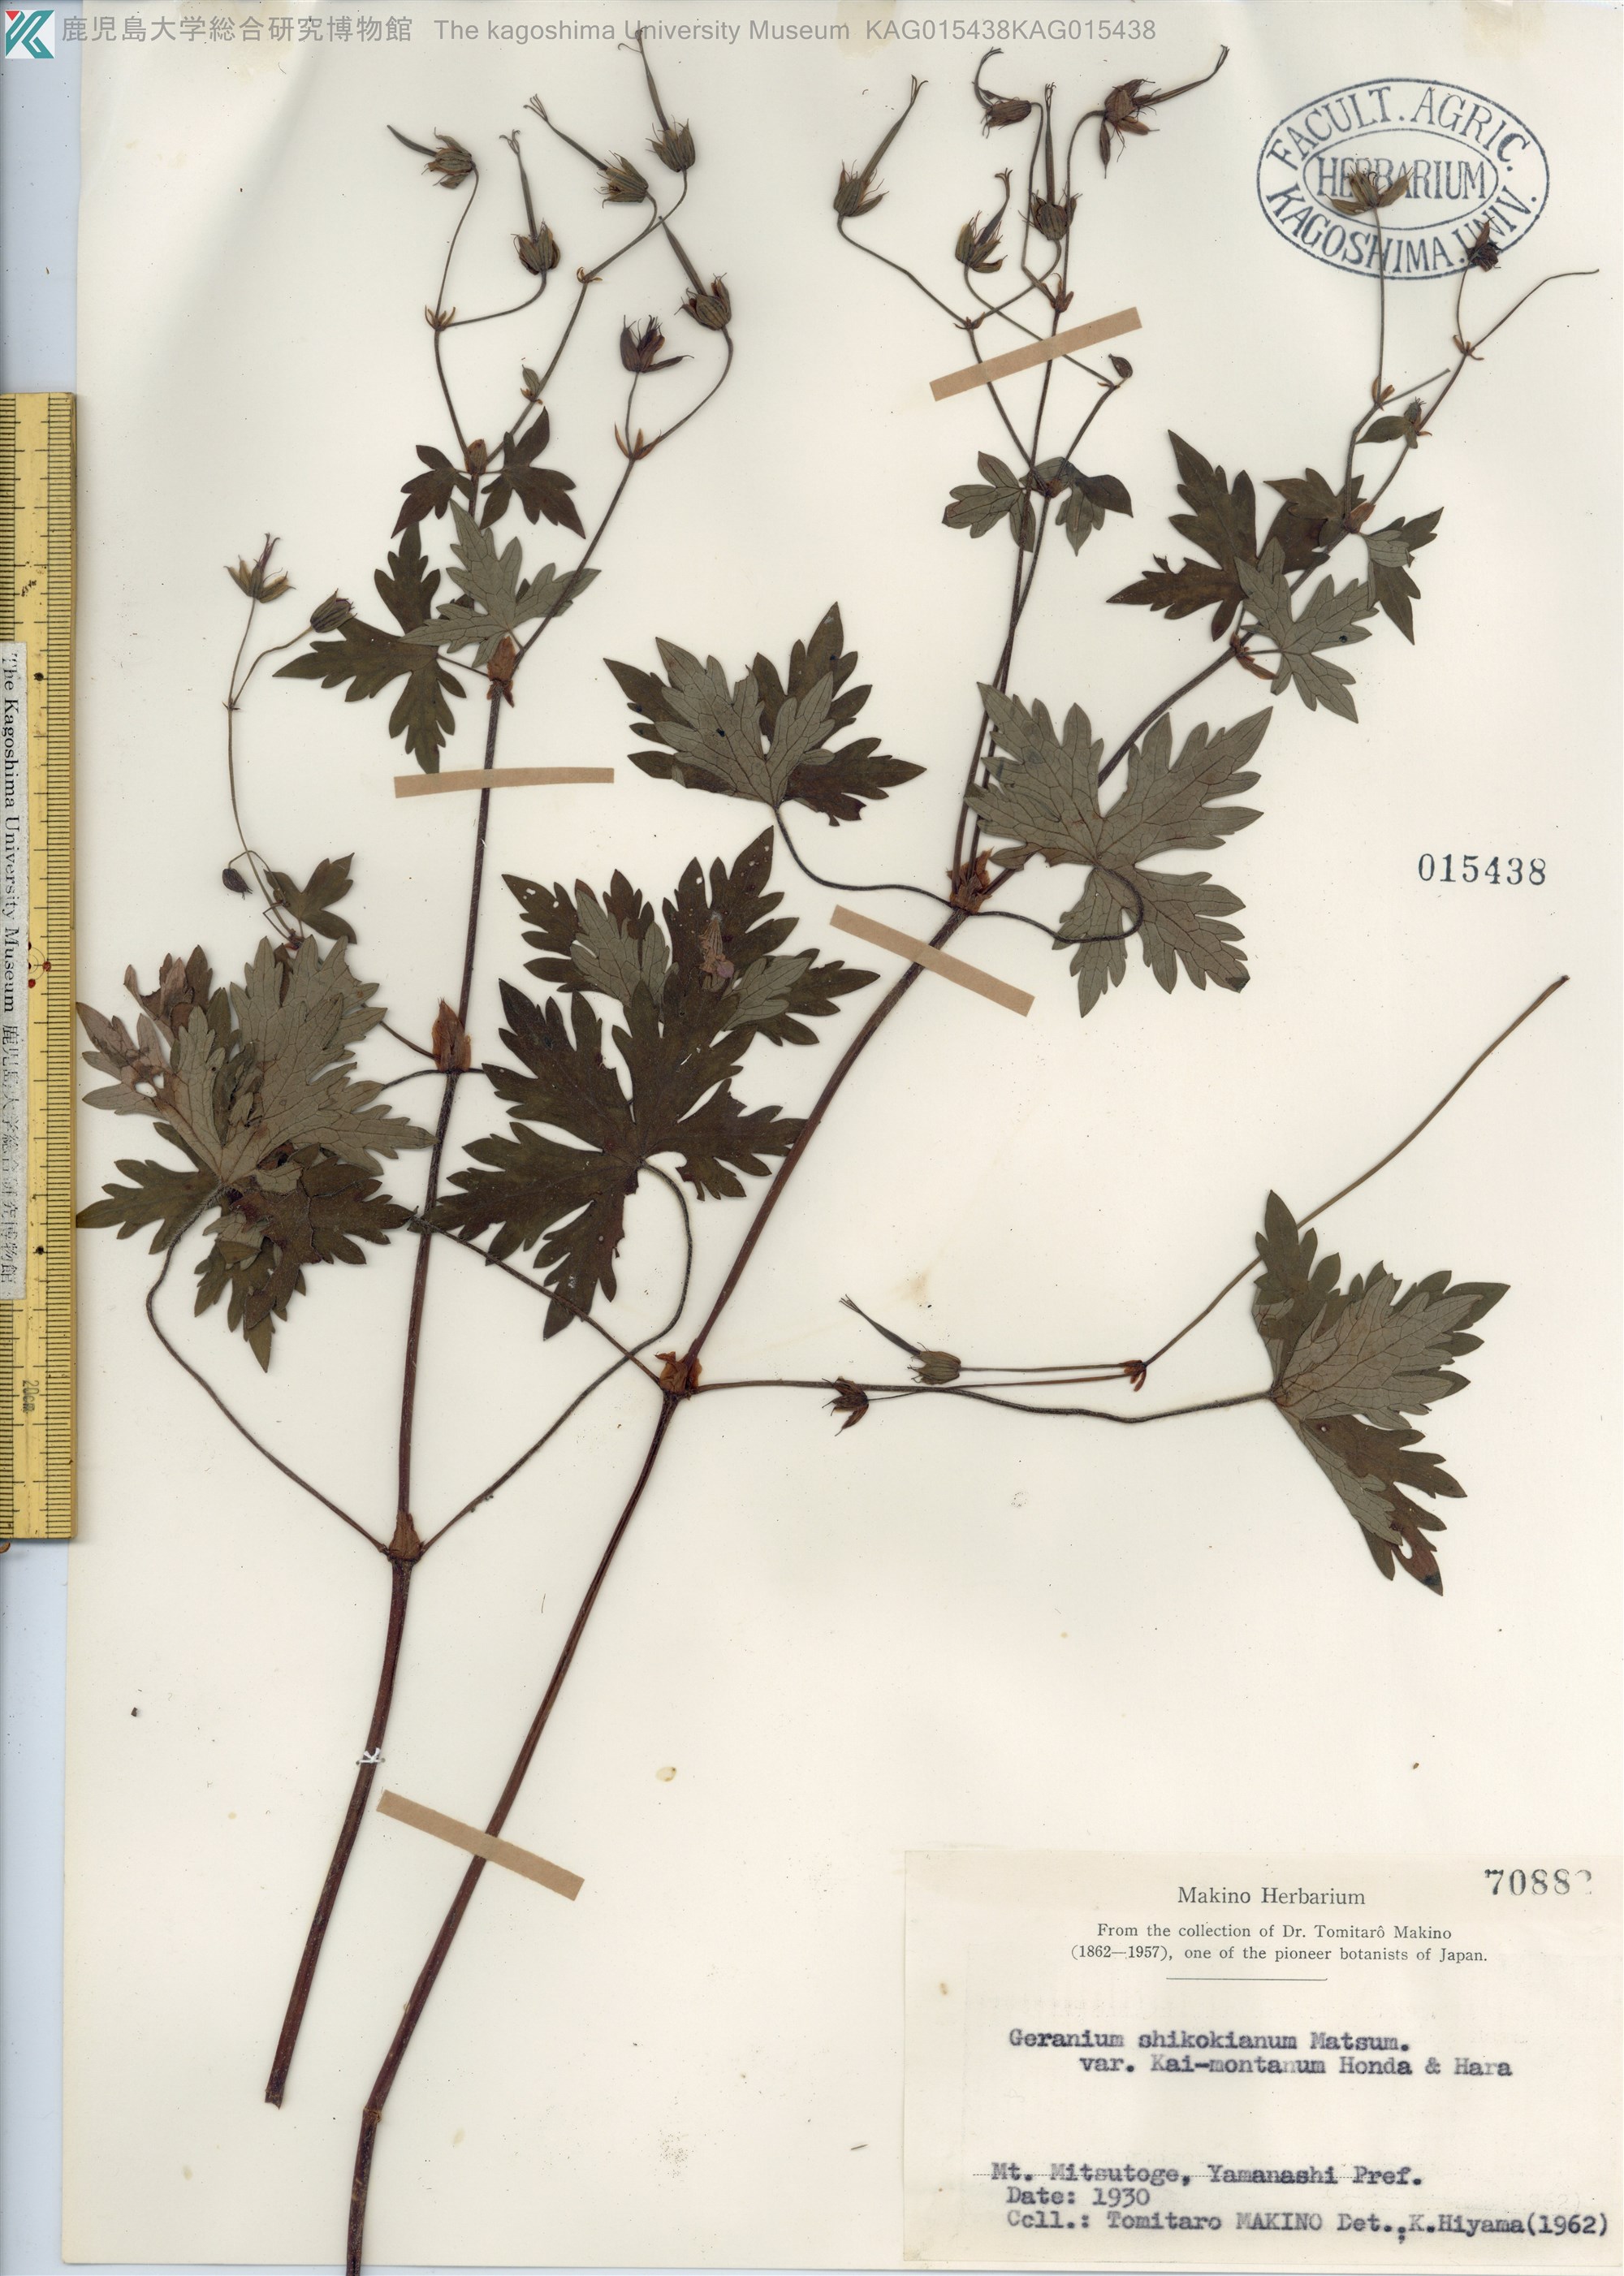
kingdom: Plantae
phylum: Tracheophyta
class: Magnoliopsida
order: Geraniales
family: Geraniaceae
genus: Geranium
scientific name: Geranium shikokianum
